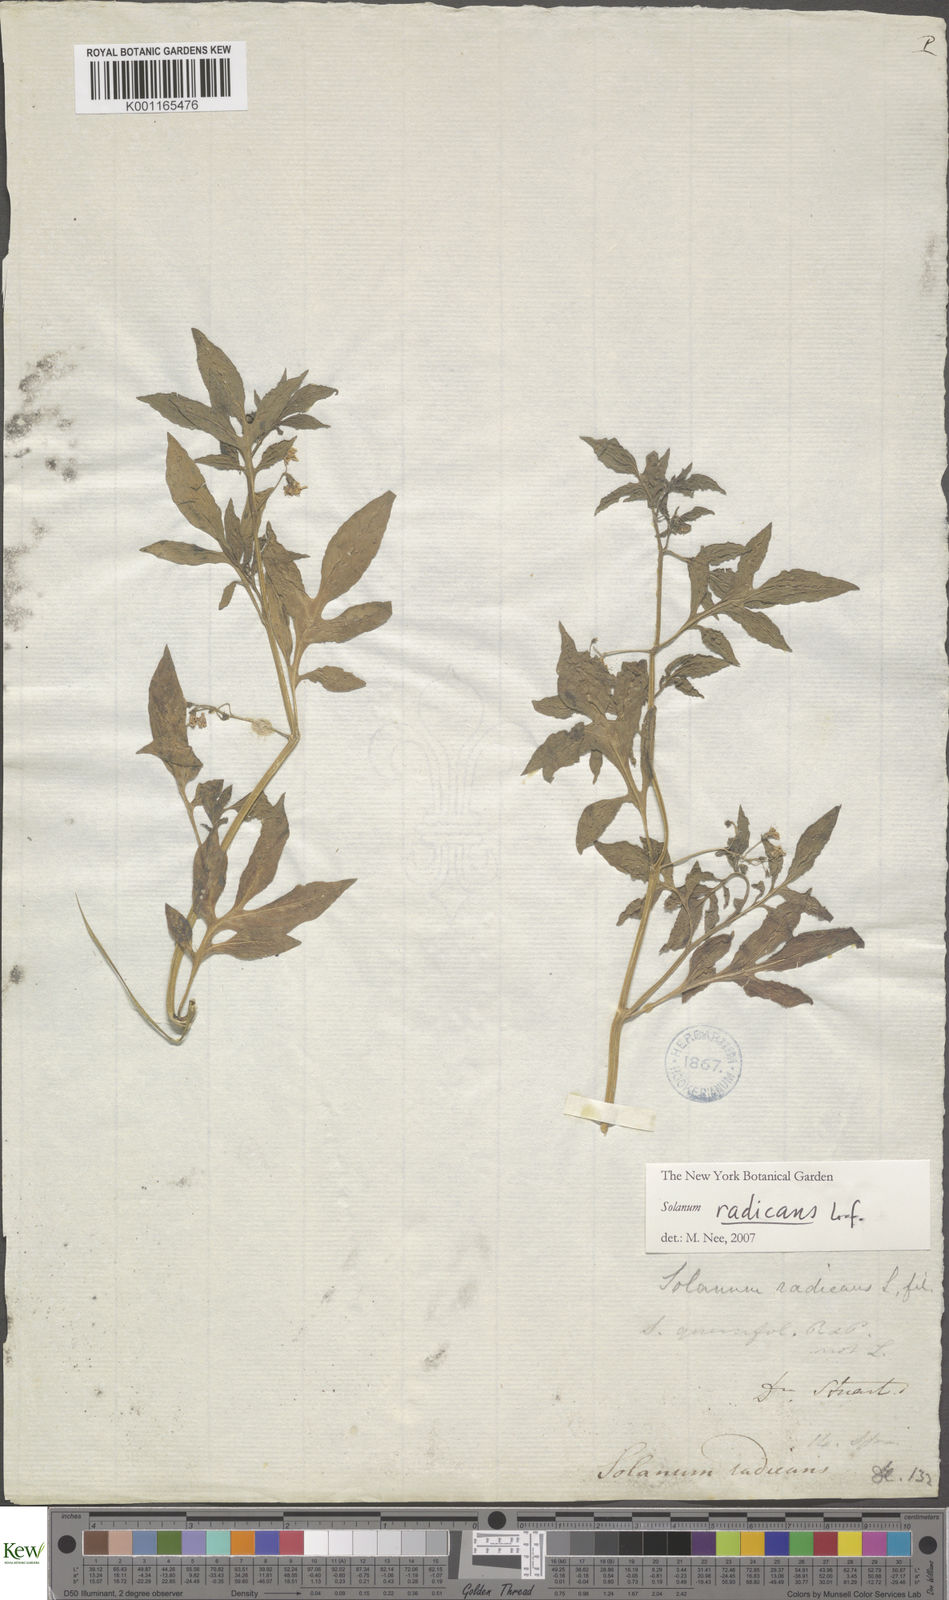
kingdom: Plantae
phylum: Tracheophyta
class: Magnoliopsida
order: Solanales
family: Solanaceae
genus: Solanum
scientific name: Solanum radicans
